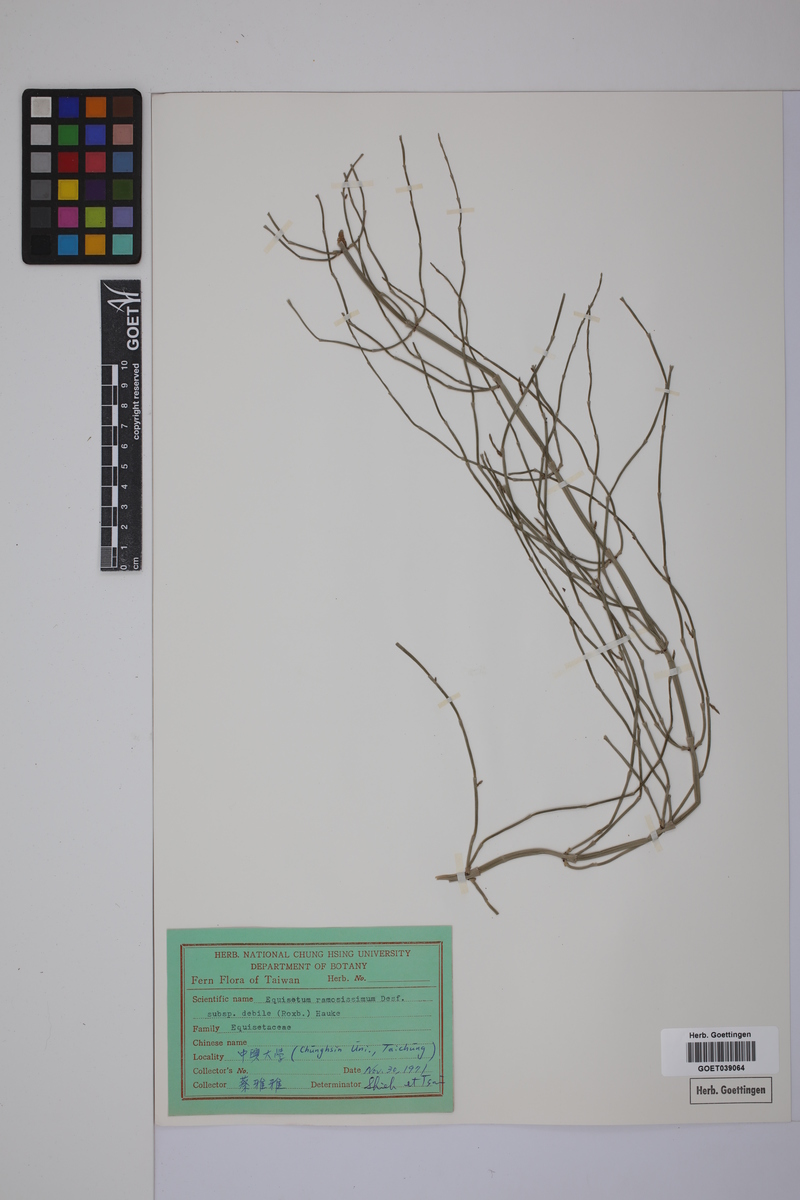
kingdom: Plantae
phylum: Tracheophyta
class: Polypodiopsida
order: Equisetales
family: Equisetaceae
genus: Equisetum
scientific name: Equisetum giganteum
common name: Giant horsetail
